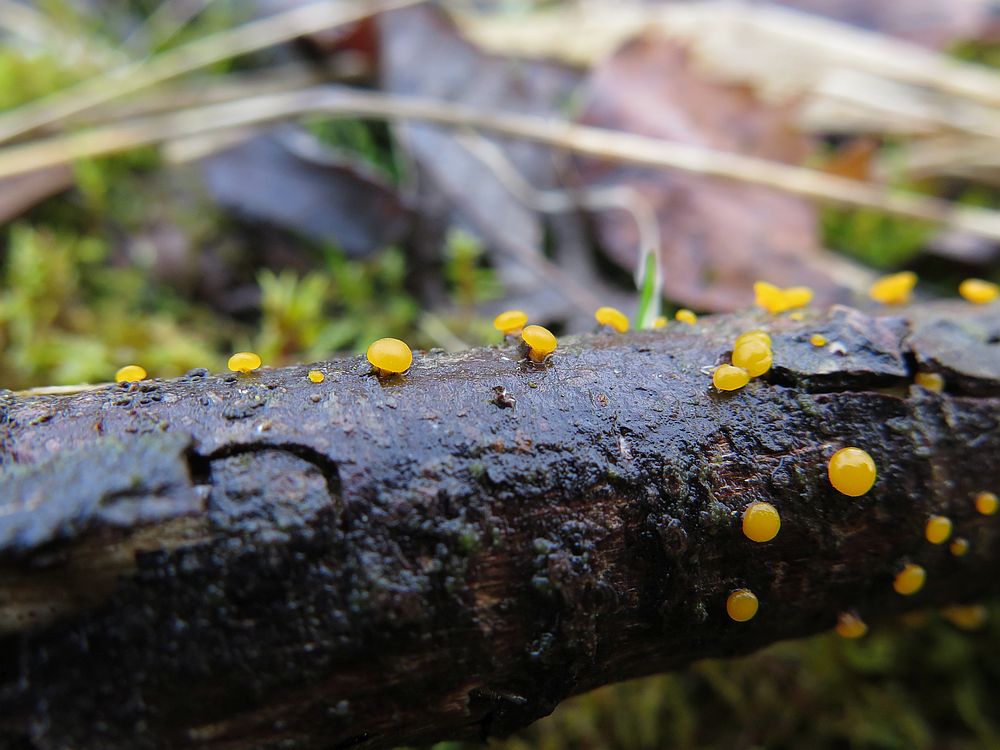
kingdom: Fungi
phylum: Basidiomycota
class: Dacrymycetes
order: Dacrymycetales
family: Dacrymycetaceae
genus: Dacrymyces
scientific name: Dacrymyces capitatus
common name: stilket tåresvamp
